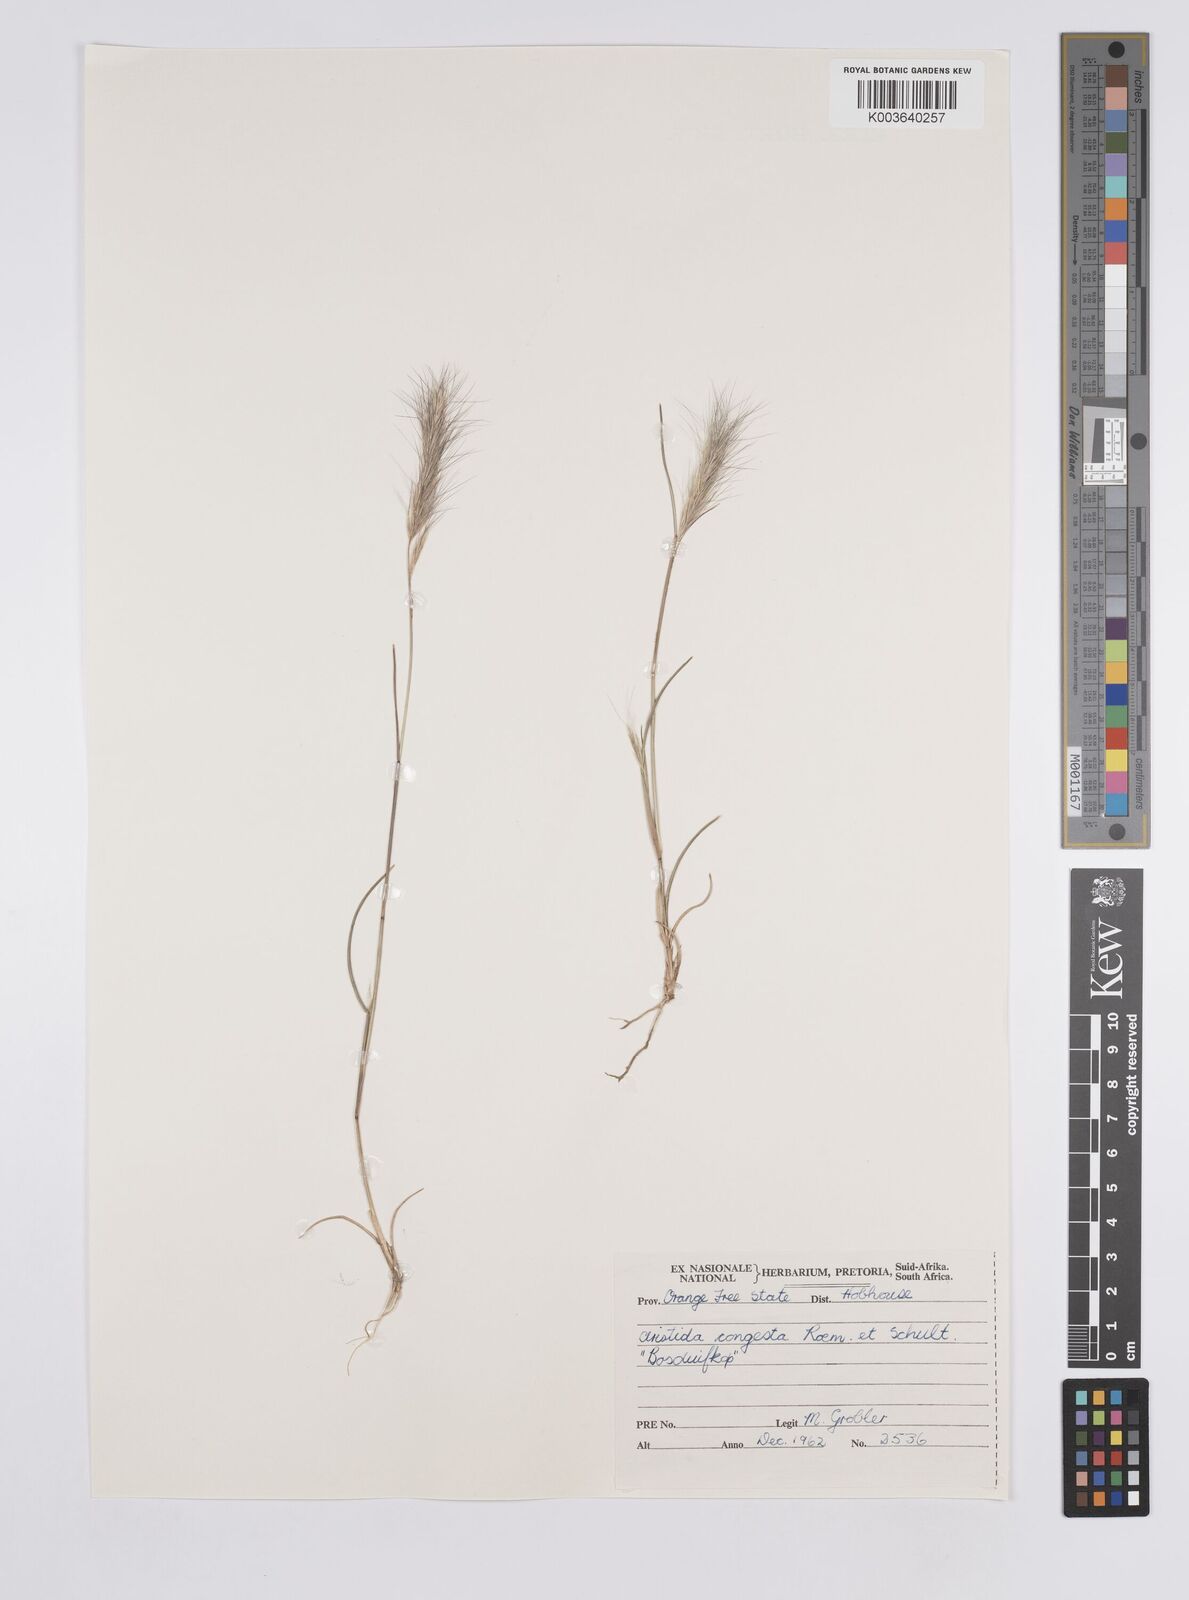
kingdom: Plantae
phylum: Tracheophyta
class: Liliopsida
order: Poales
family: Poaceae
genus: Aristida
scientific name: Aristida congesta
